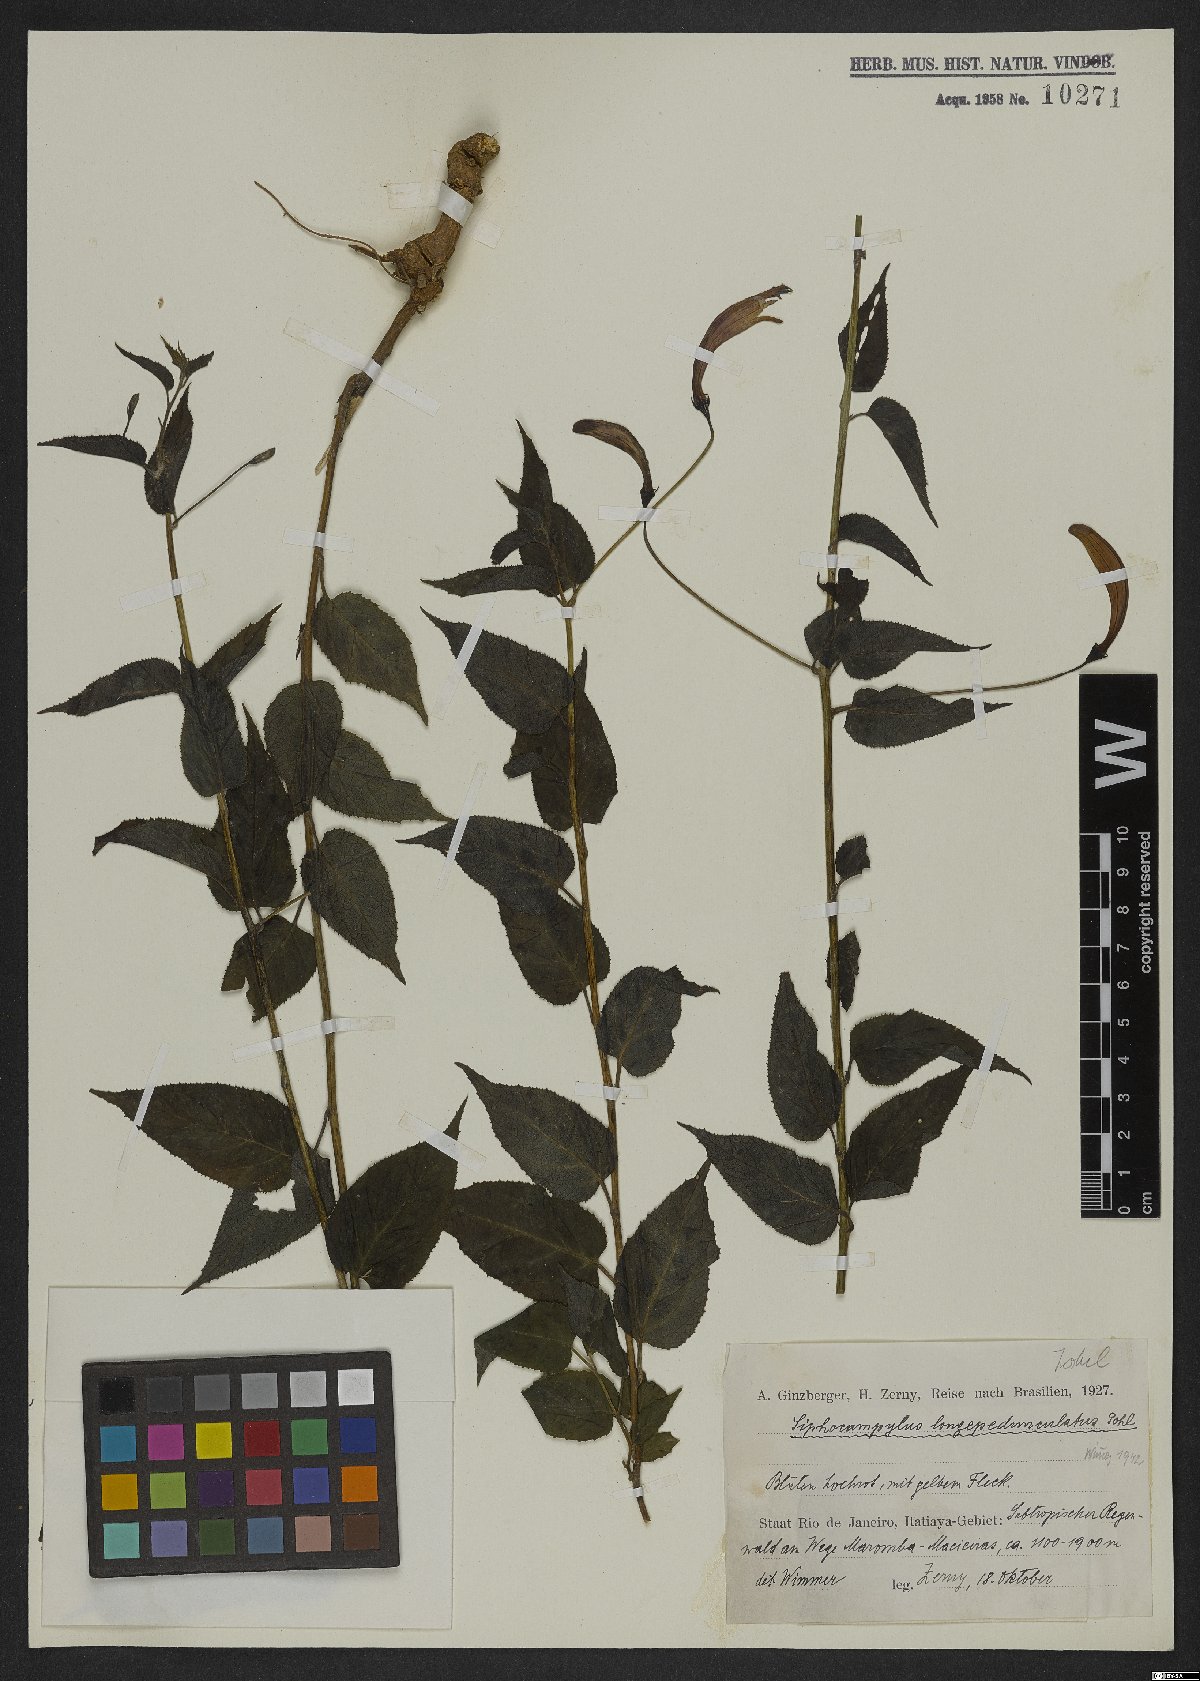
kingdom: Plantae
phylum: Tracheophyta
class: Magnoliopsida
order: Asterales
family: Campanulaceae
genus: Siphocampylus
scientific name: Siphocampylus longipedunculatus
